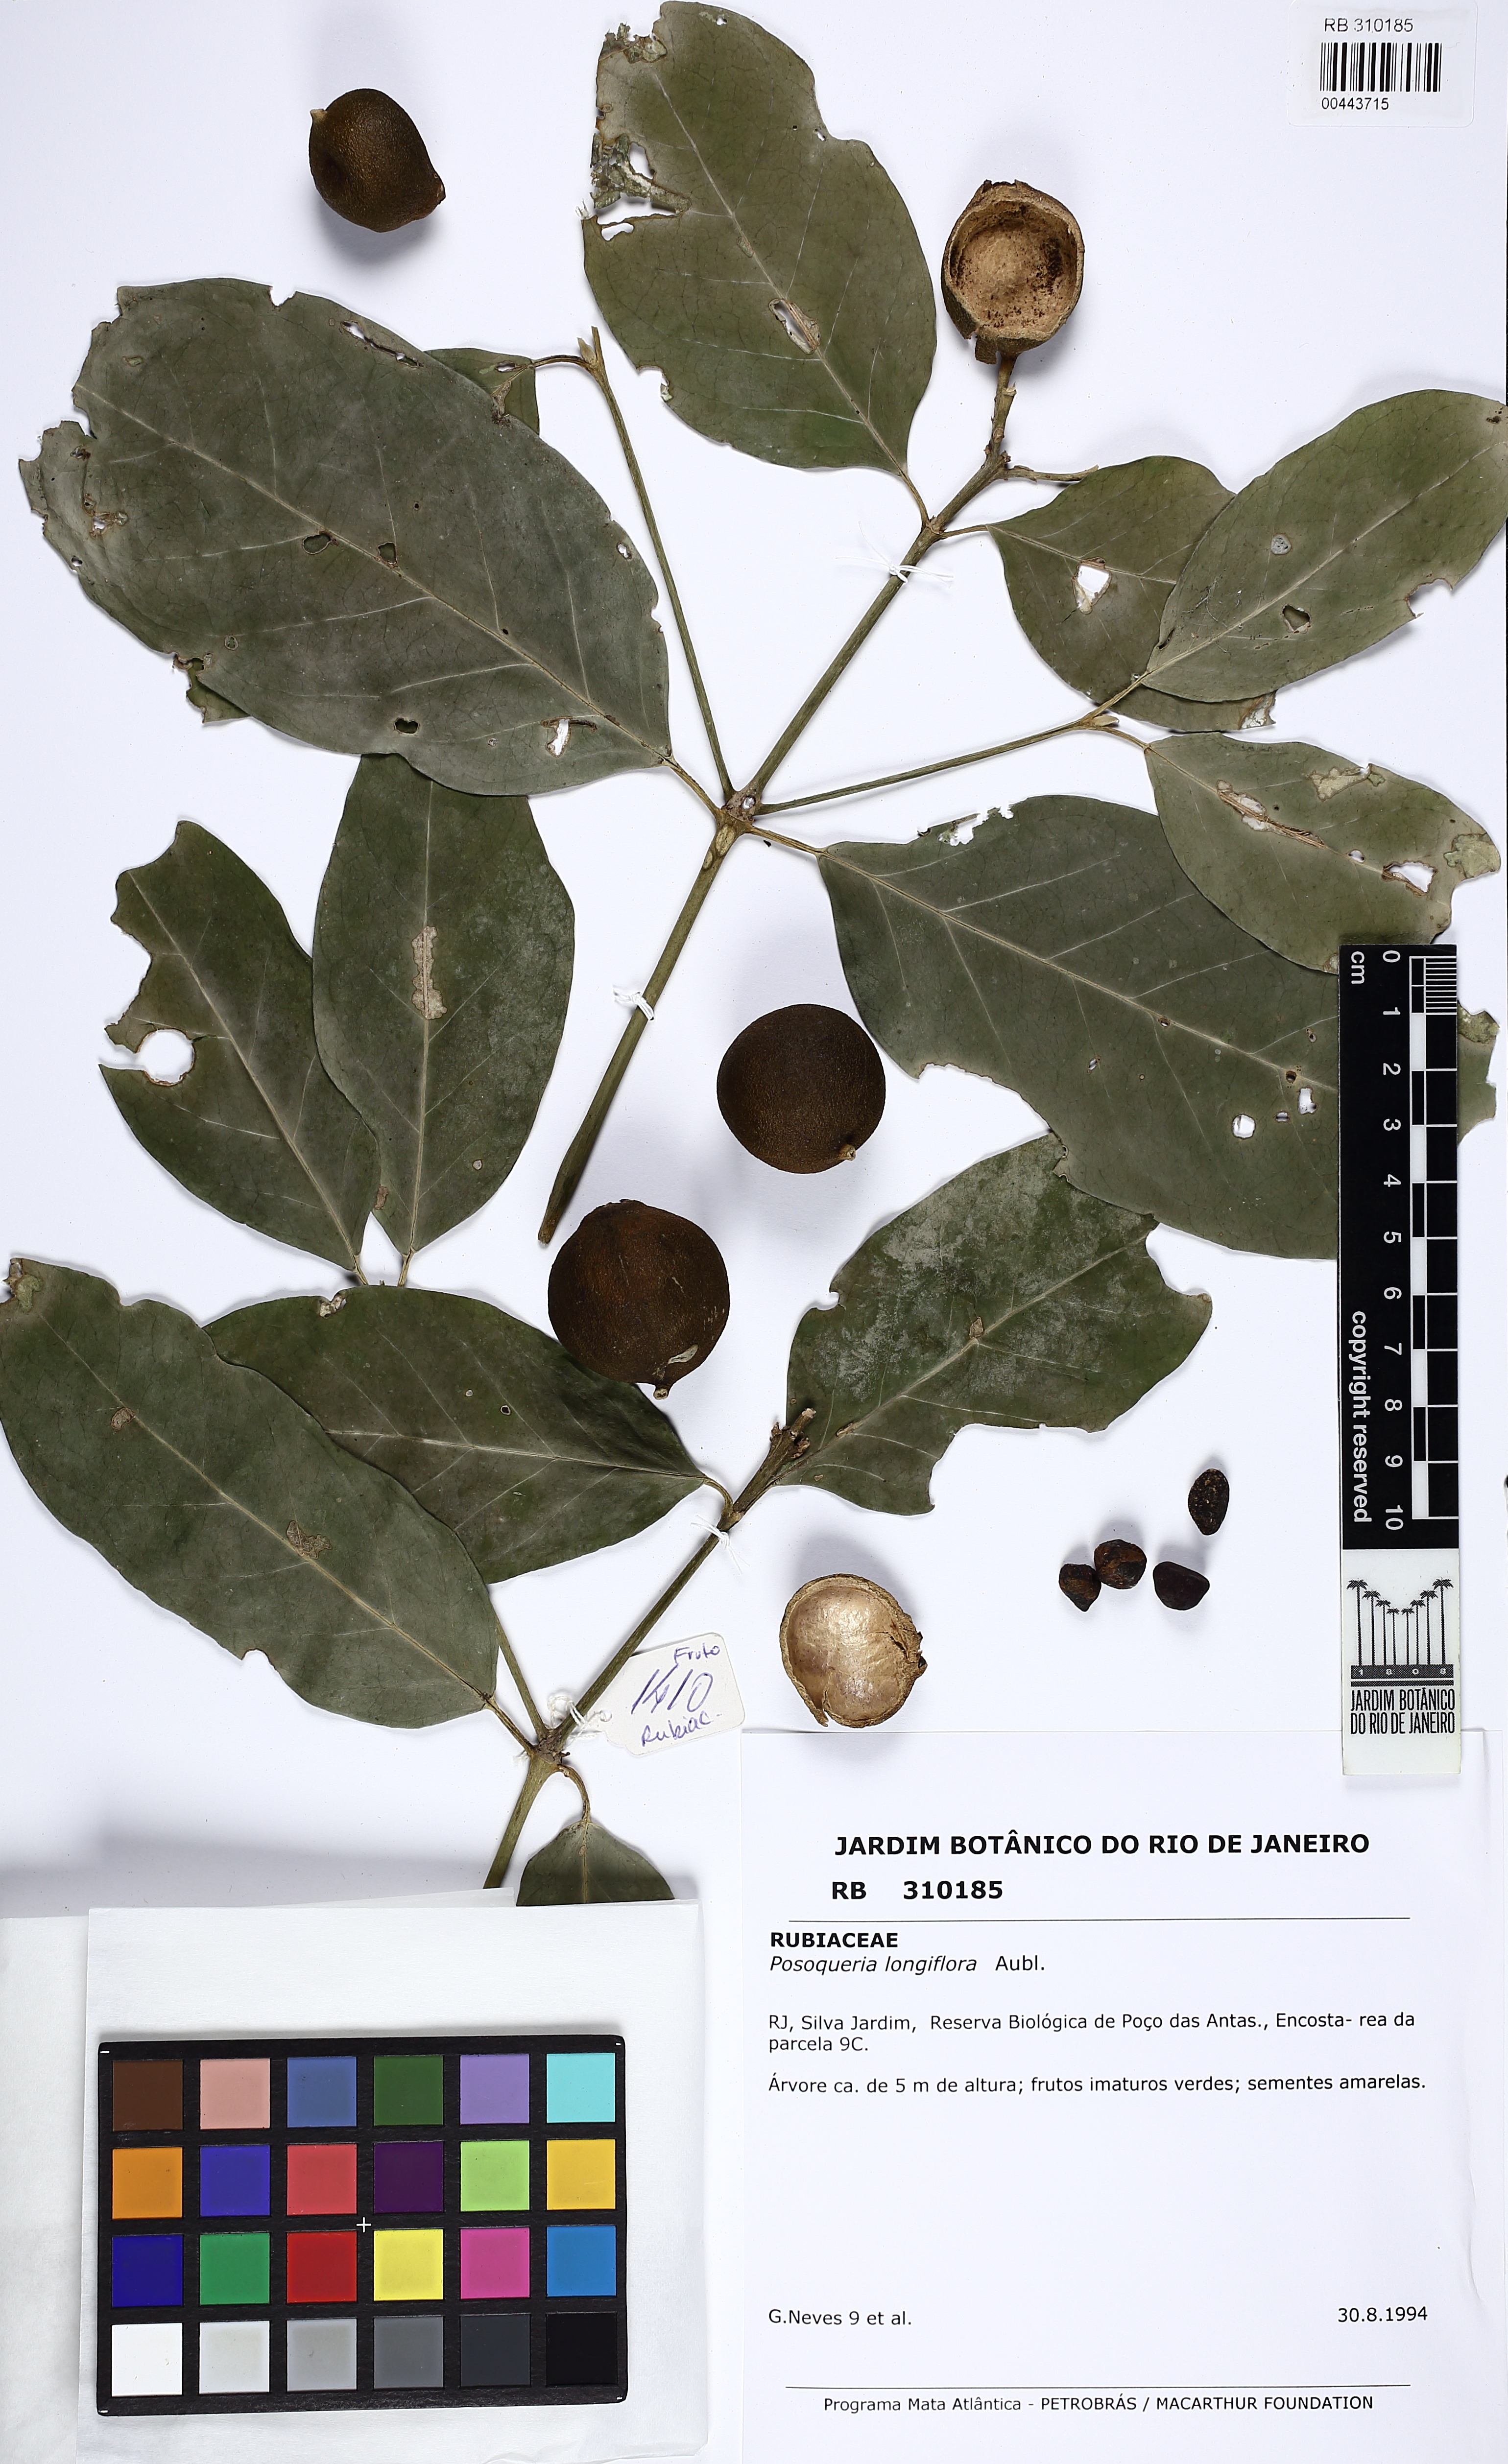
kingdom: Plantae
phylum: Tracheophyta
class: Magnoliopsida
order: Gentianales
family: Rubiaceae
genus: Posoqueria
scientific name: Posoqueria longiflora
